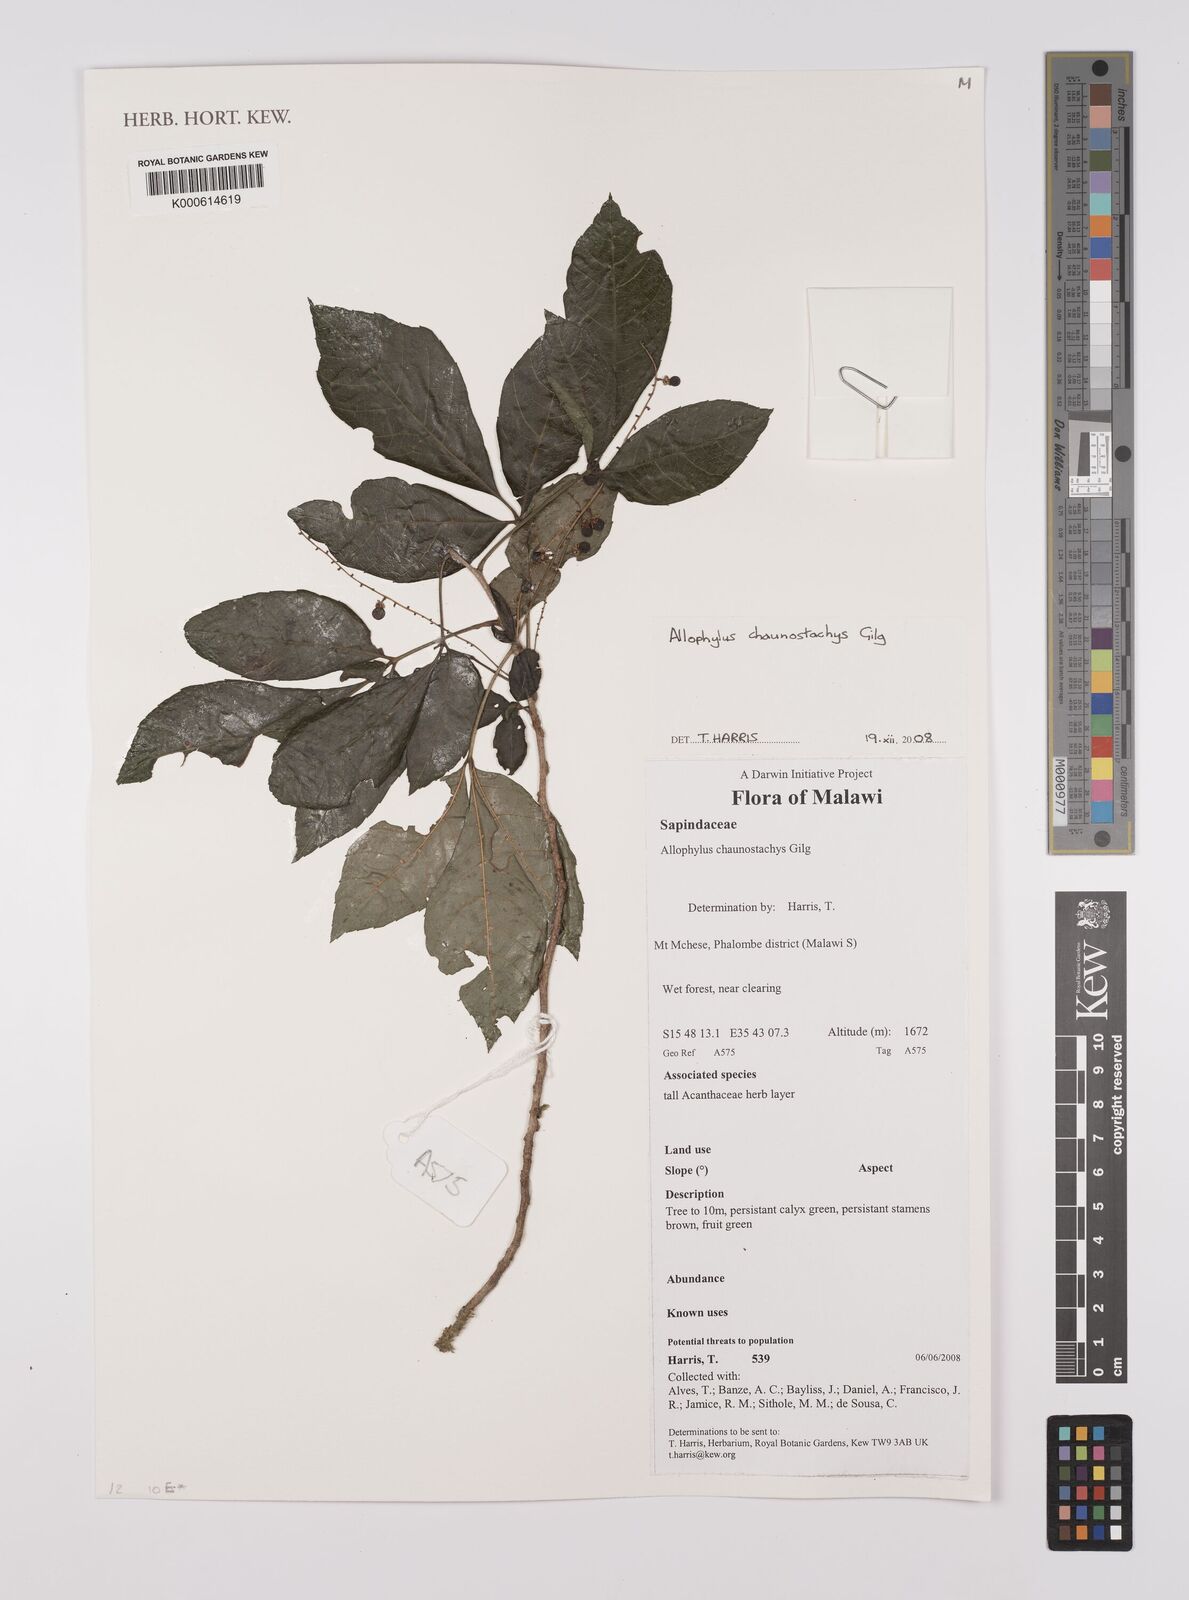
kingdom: Plantae
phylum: Tracheophyta
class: Magnoliopsida
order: Sapindales
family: Sapindaceae
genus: Allophylus
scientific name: Allophylus chaunostachys
